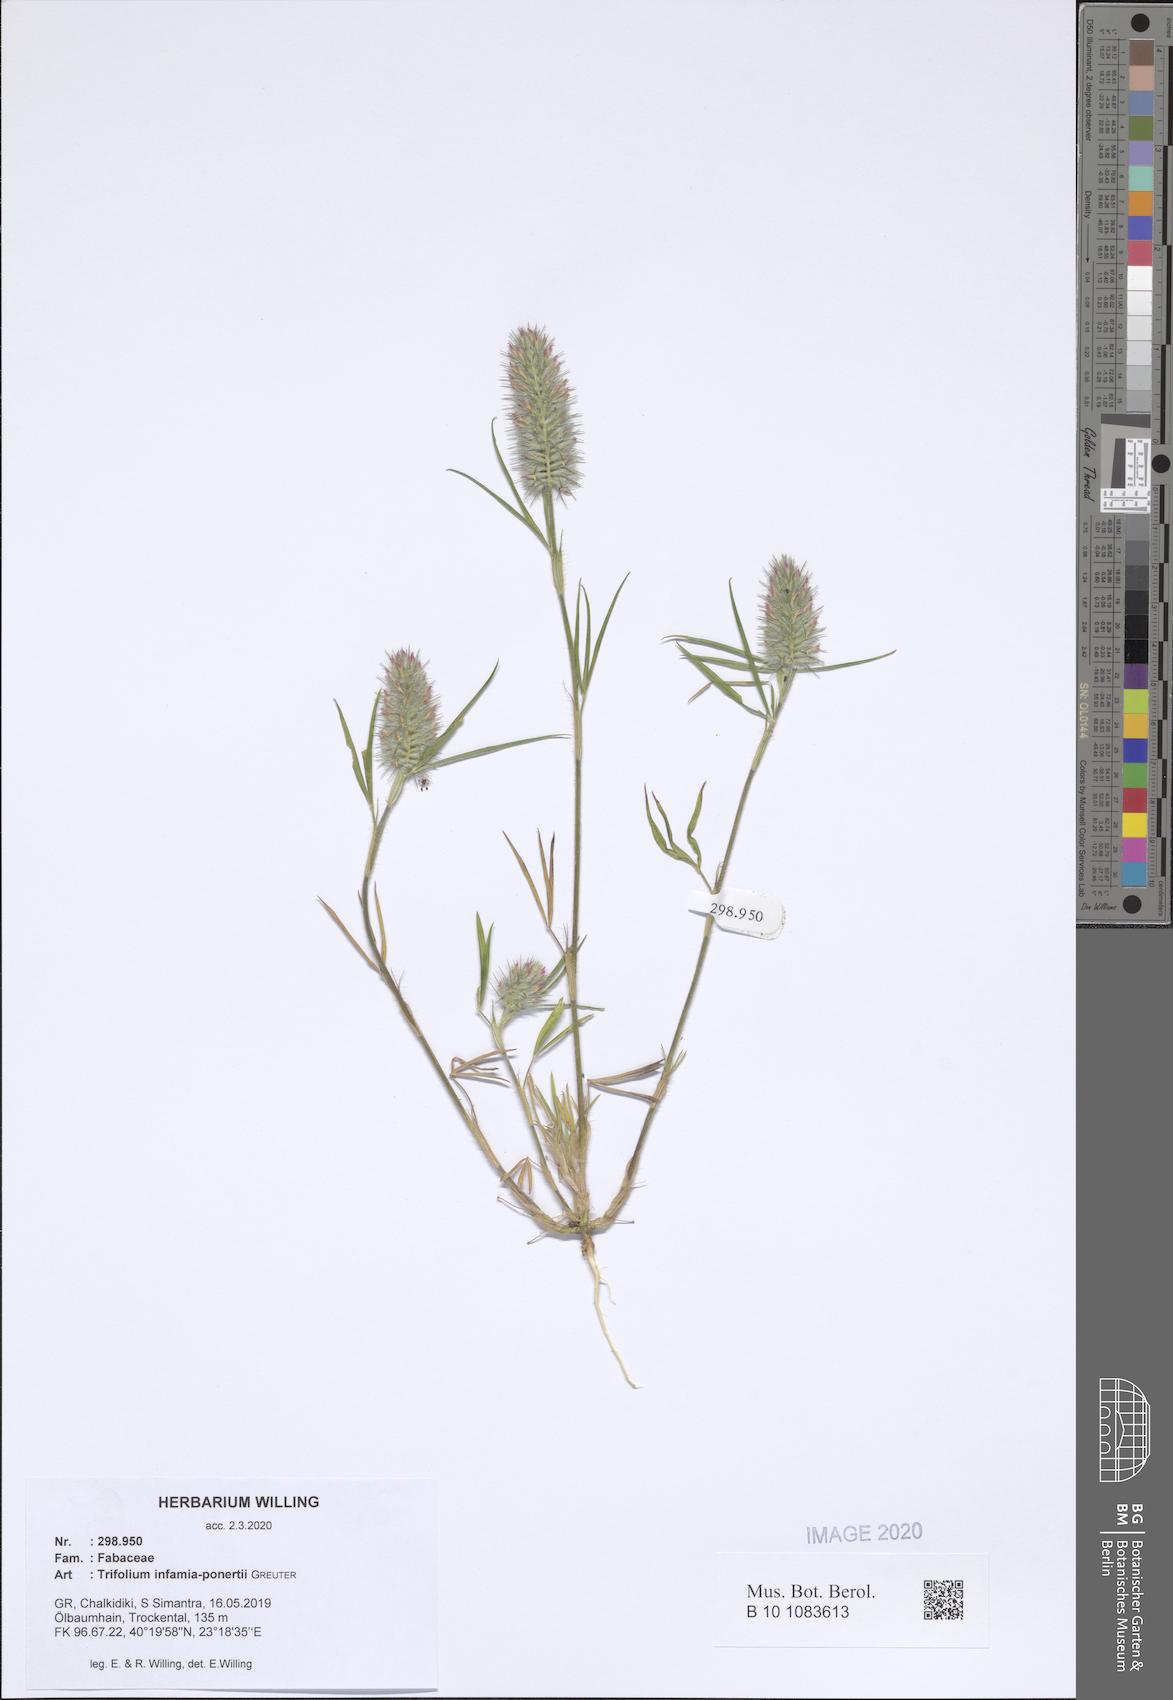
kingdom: Plantae
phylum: Tracheophyta
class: Magnoliopsida
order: Fabales
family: Fabaceae
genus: Trifolium
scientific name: Trifolium infamia-ponertii
